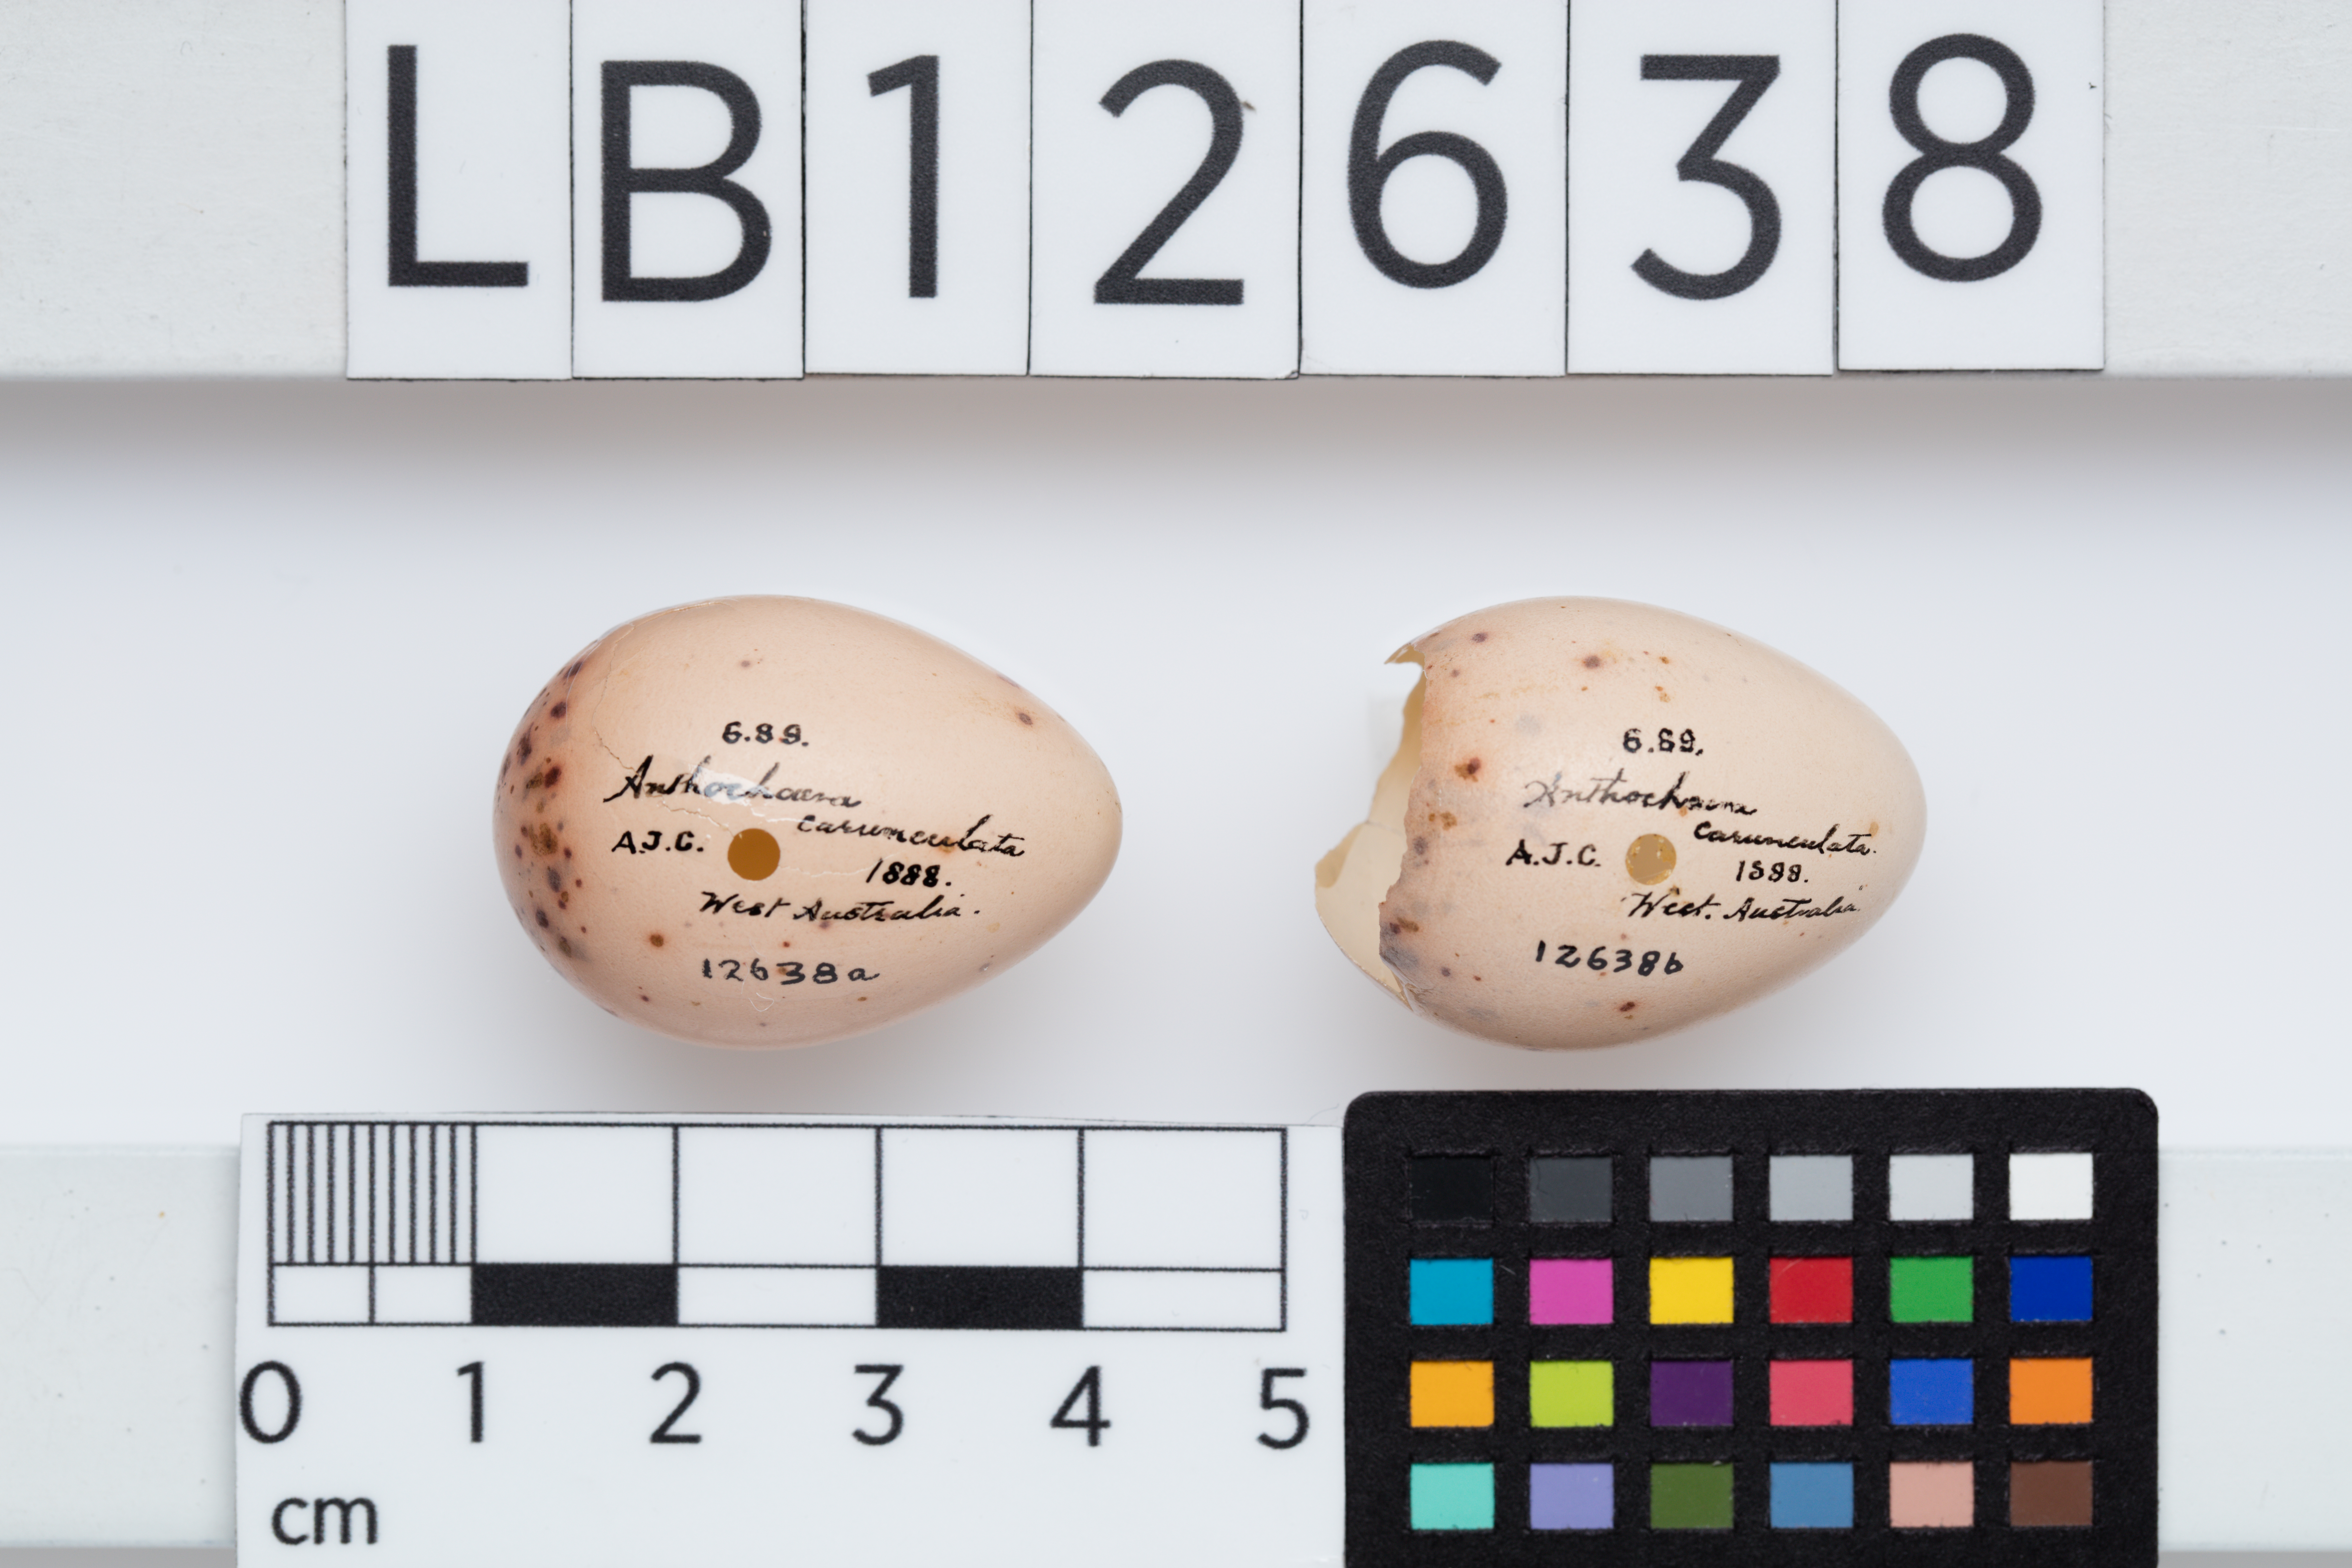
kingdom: Animalia
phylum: Chordata
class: Aves
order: Passeriformes
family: Meliphagidae
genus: Anthochaera
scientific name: Anthochaera carunculata
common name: Red wattlebird
